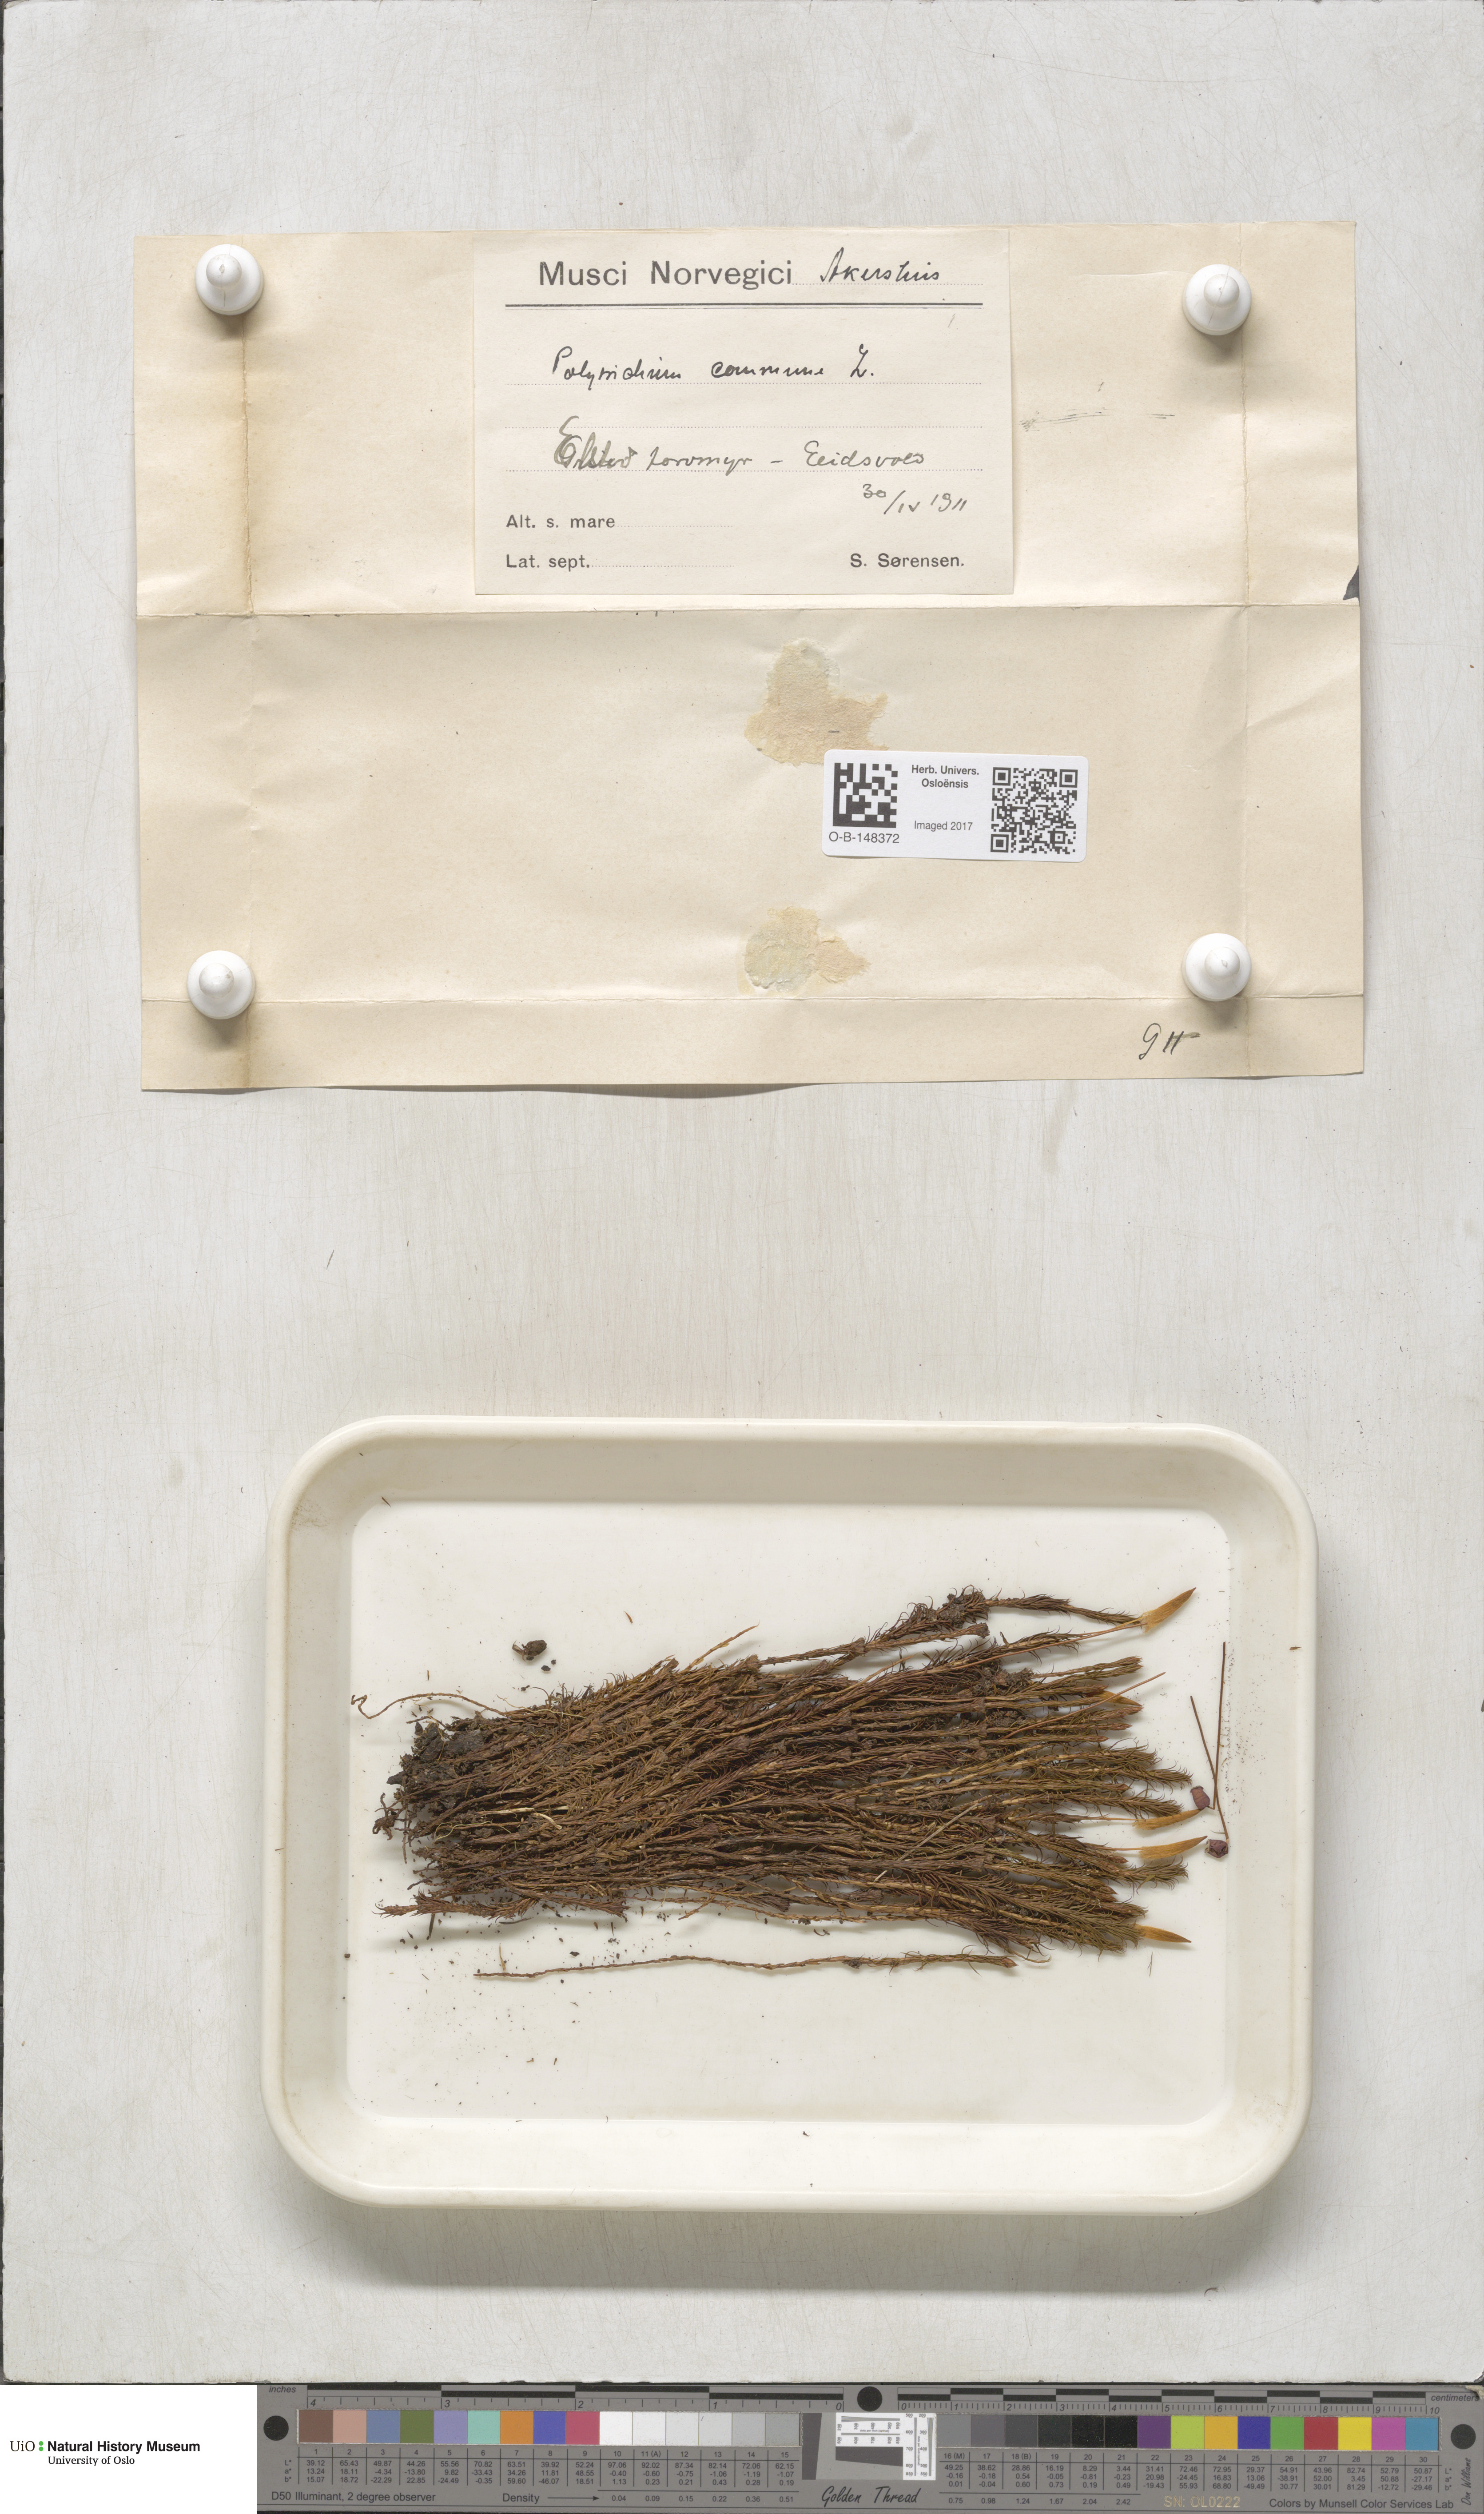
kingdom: Plantae
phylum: Bryophyta
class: Polytrichopsida
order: Polytrichales
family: Polytrichaceae
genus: Polytrichum
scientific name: Polytrichum commune
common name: Common haircap
